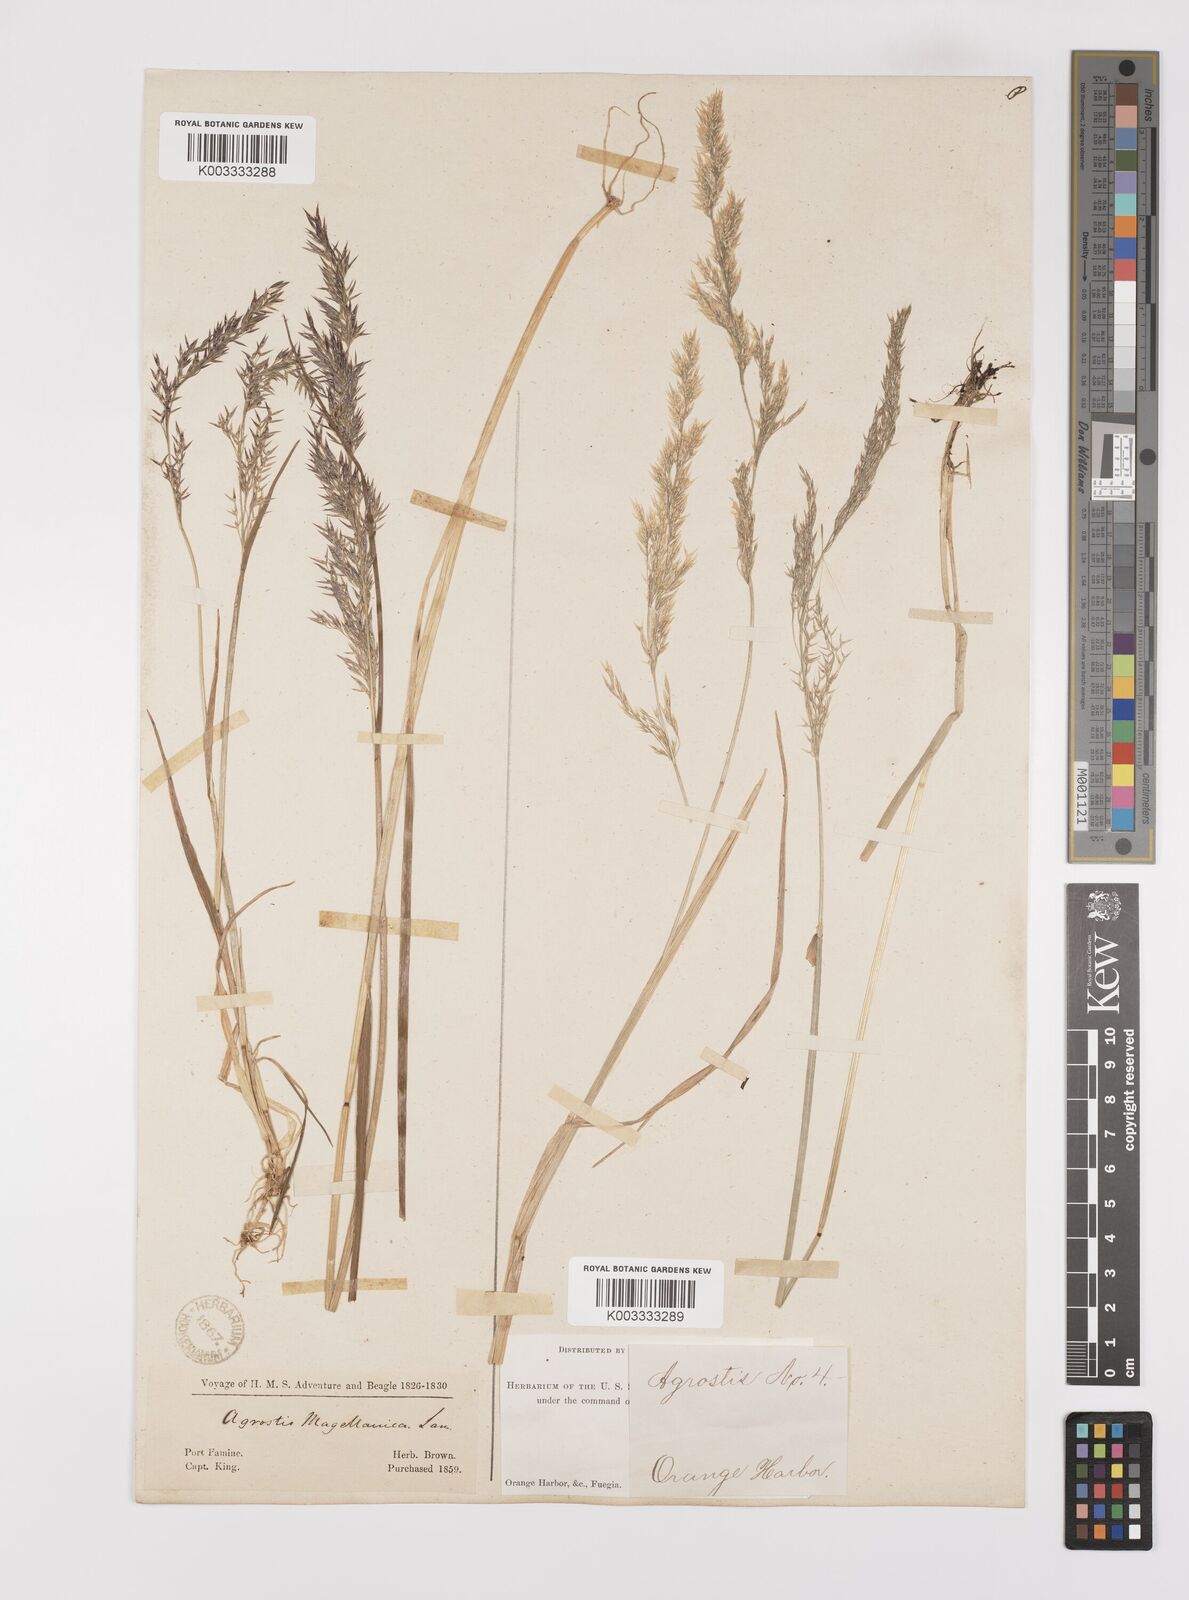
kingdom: Plantae
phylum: Tracheophyta
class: Liliopsida
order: Poales
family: Poaceae
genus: Polypogon
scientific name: Polypogon magellanicus
